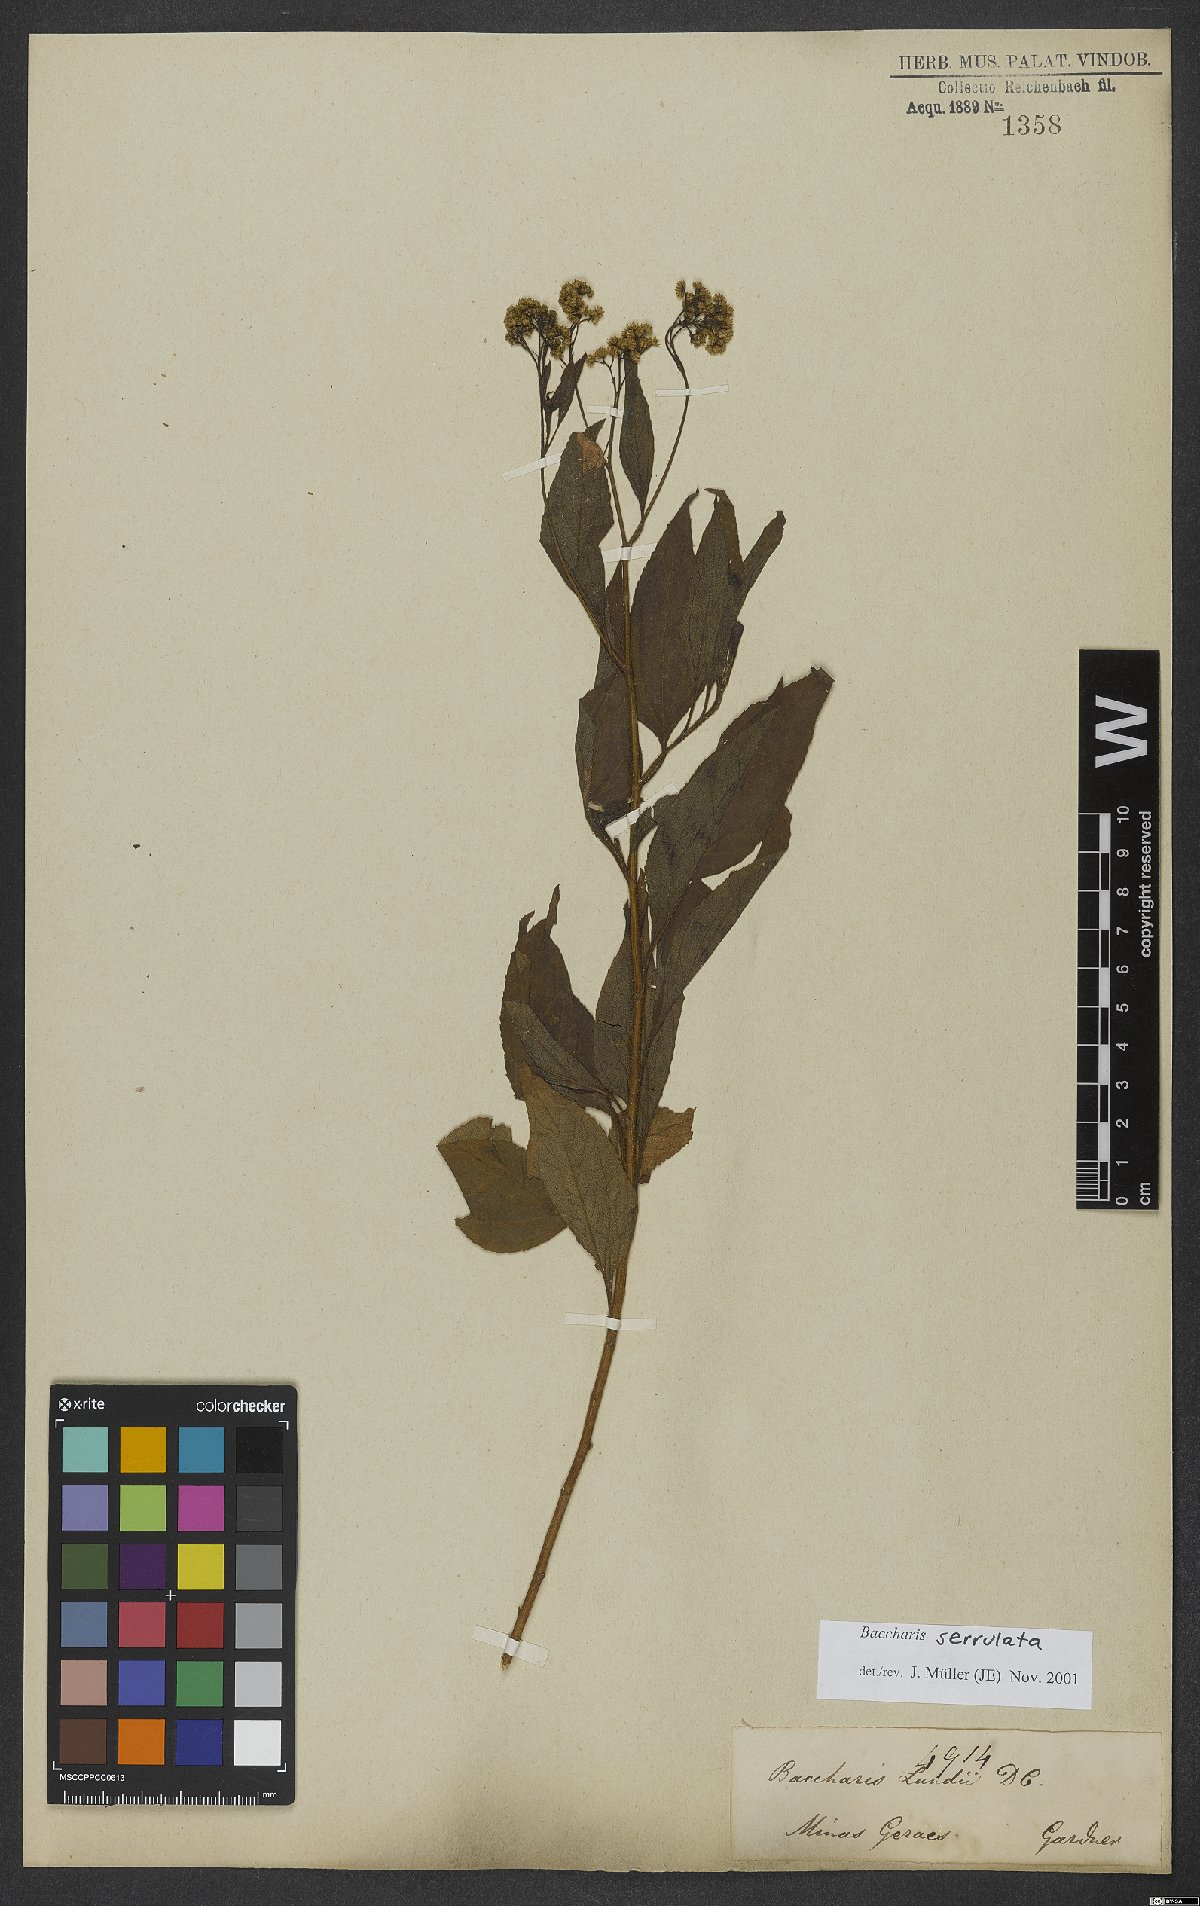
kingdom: Plantae
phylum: Tracheophyta
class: Magnoliopsida
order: Asterales
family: Asteraceae
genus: Archibaccharis
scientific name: Archibaccharis vulneraria
